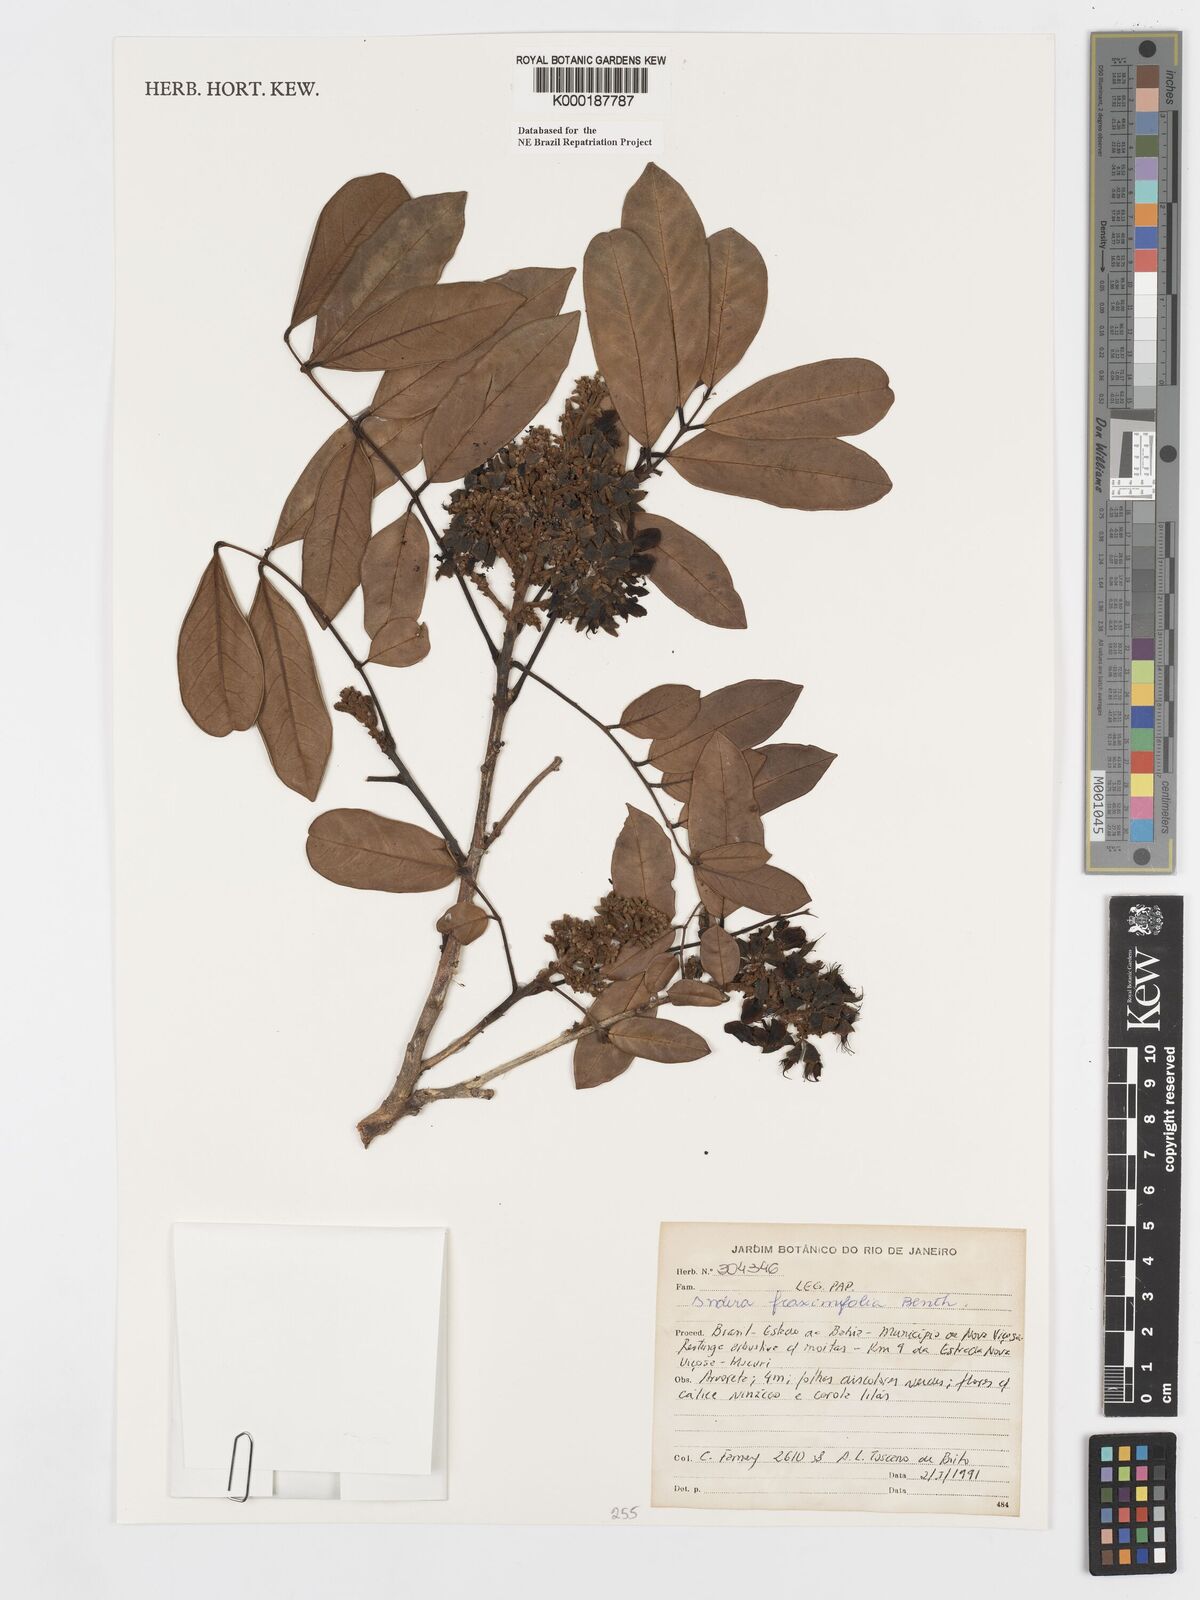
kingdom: Plantae
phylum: Tracheophyta
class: Magnoliopsida
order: Fabales
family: Fabaceae
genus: Andira
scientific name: Andira fraxinifolia
